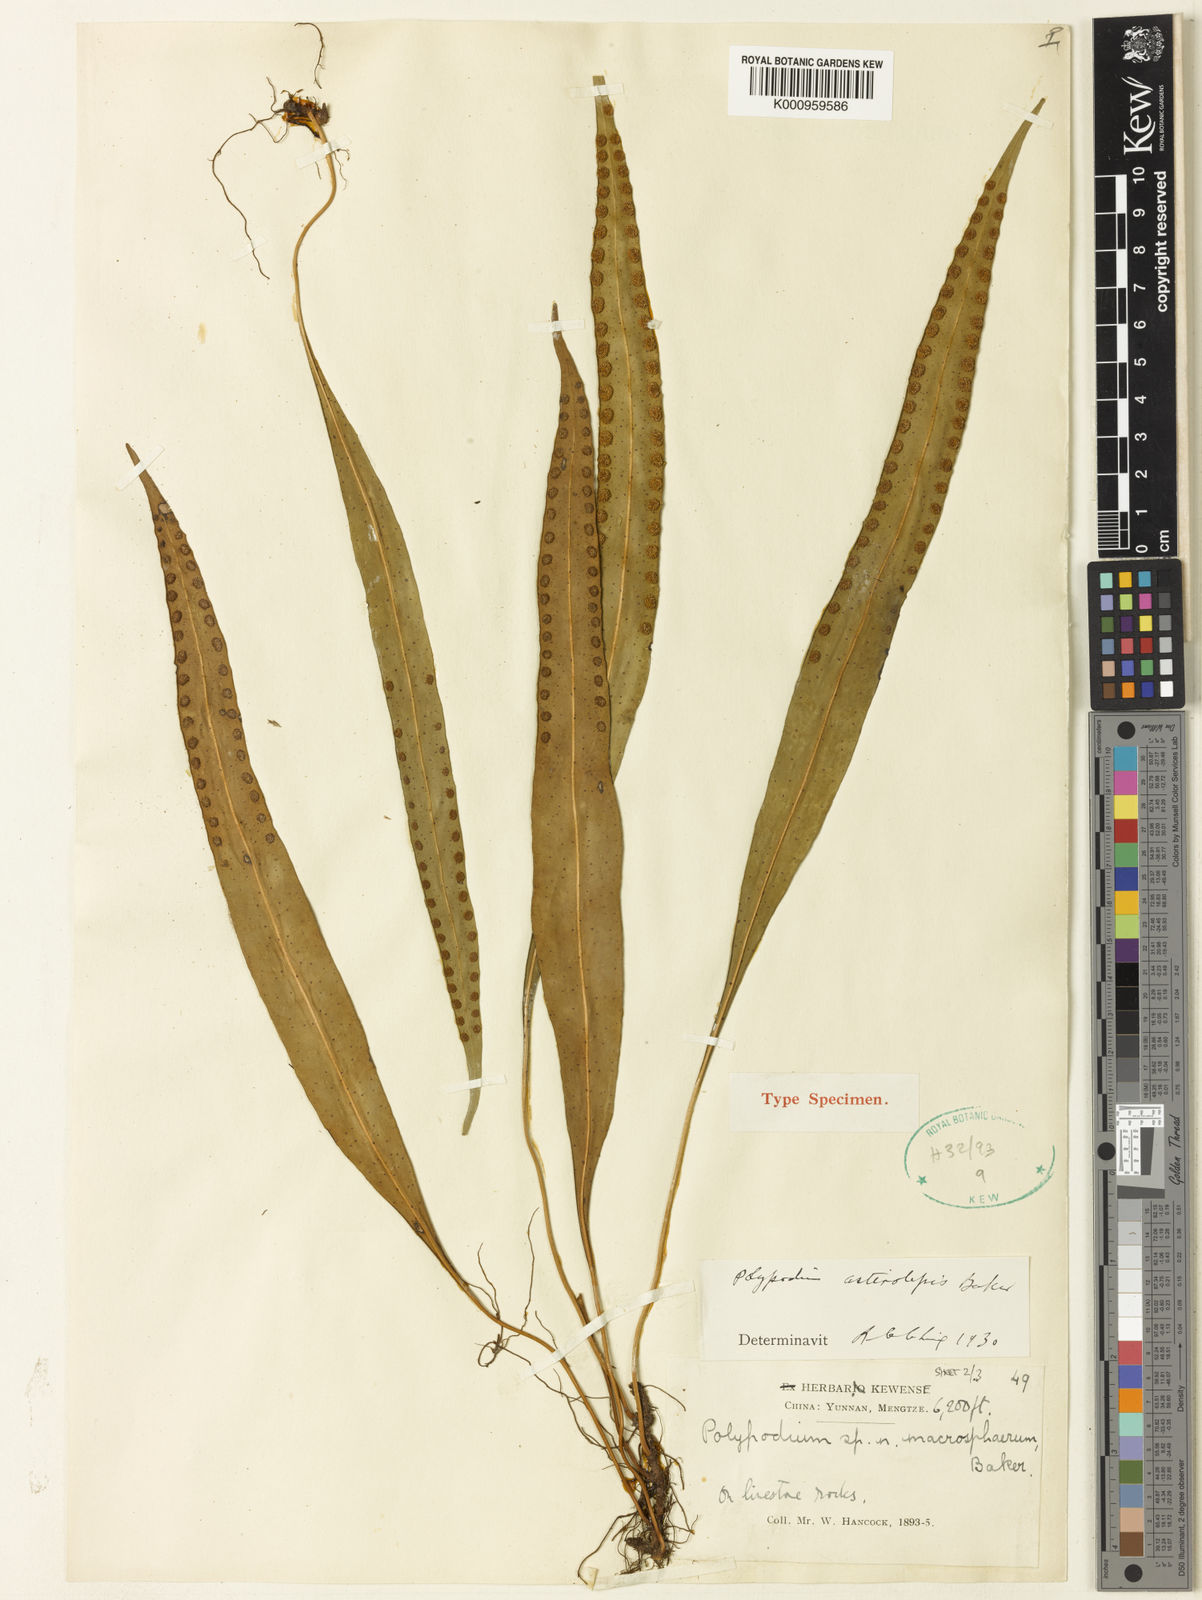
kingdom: Plantae
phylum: Tracheophyta
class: Polypodiopsida
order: Polypodiales
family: Polypodiaceae
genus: Lepisorus
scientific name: Lepisorus macrosphaerus
